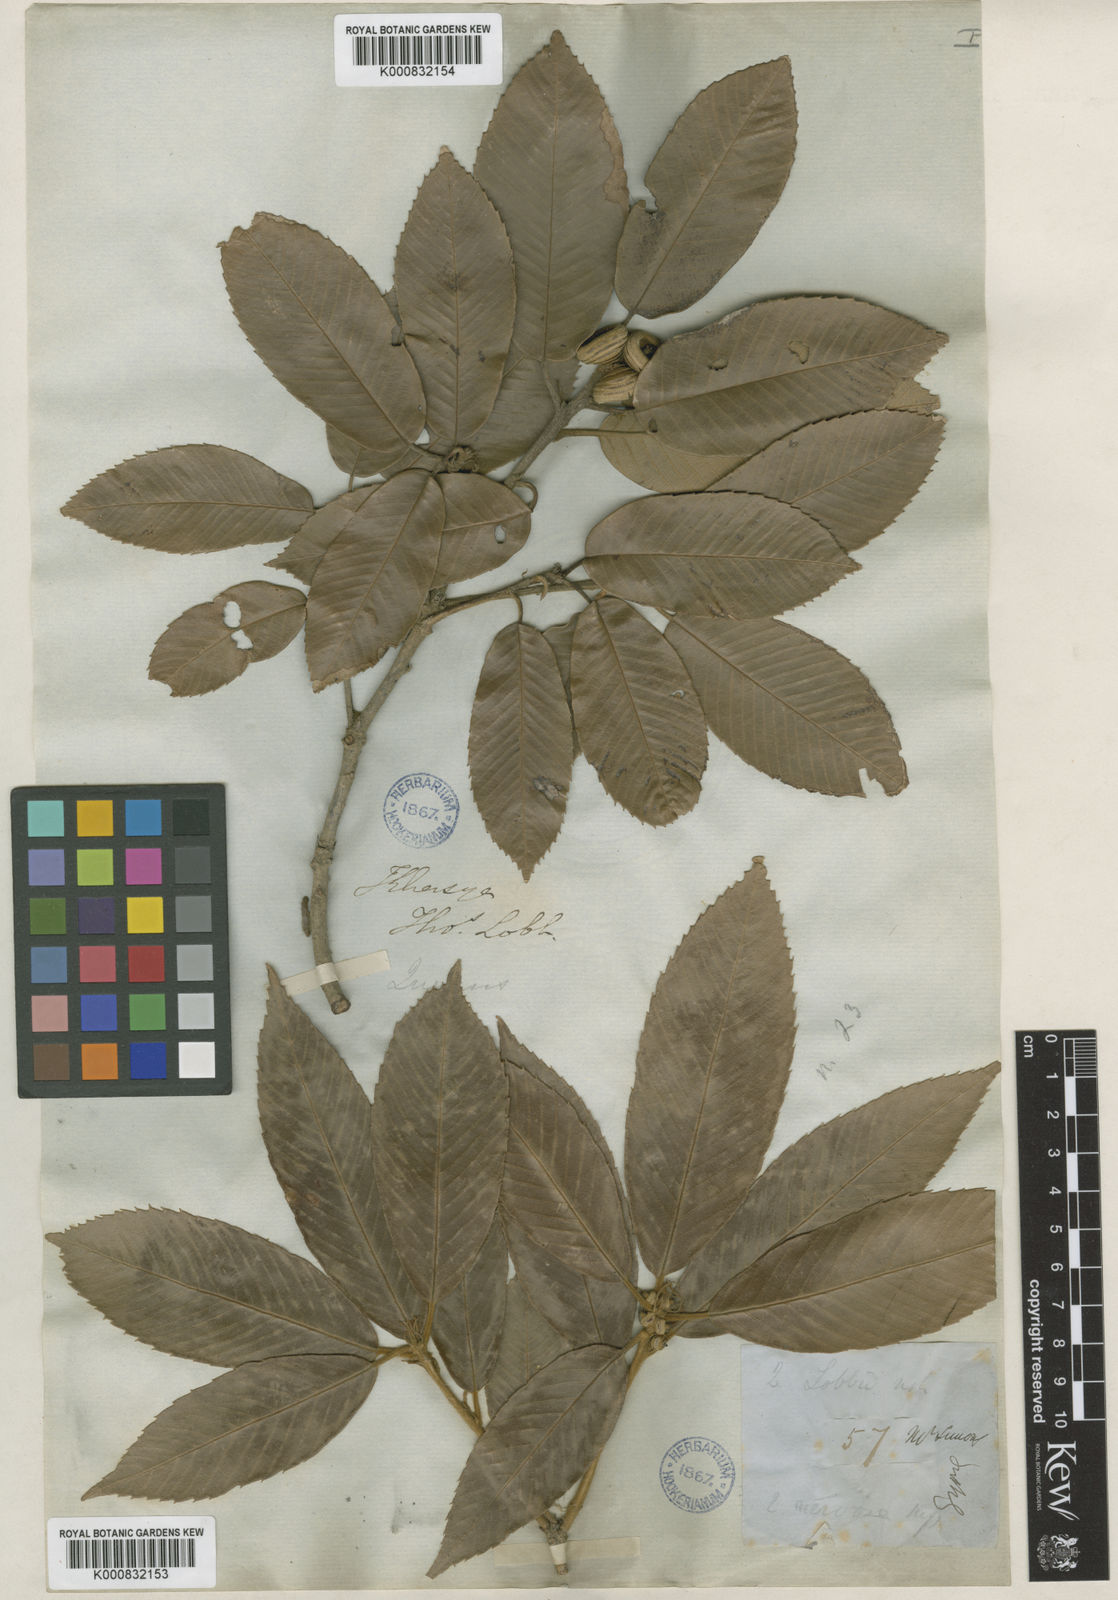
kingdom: Plantae
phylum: Tracheophyta
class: Magnoliopsida
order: Fagales
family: Fagaceae
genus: Quercus
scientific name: Quercus lobbii
